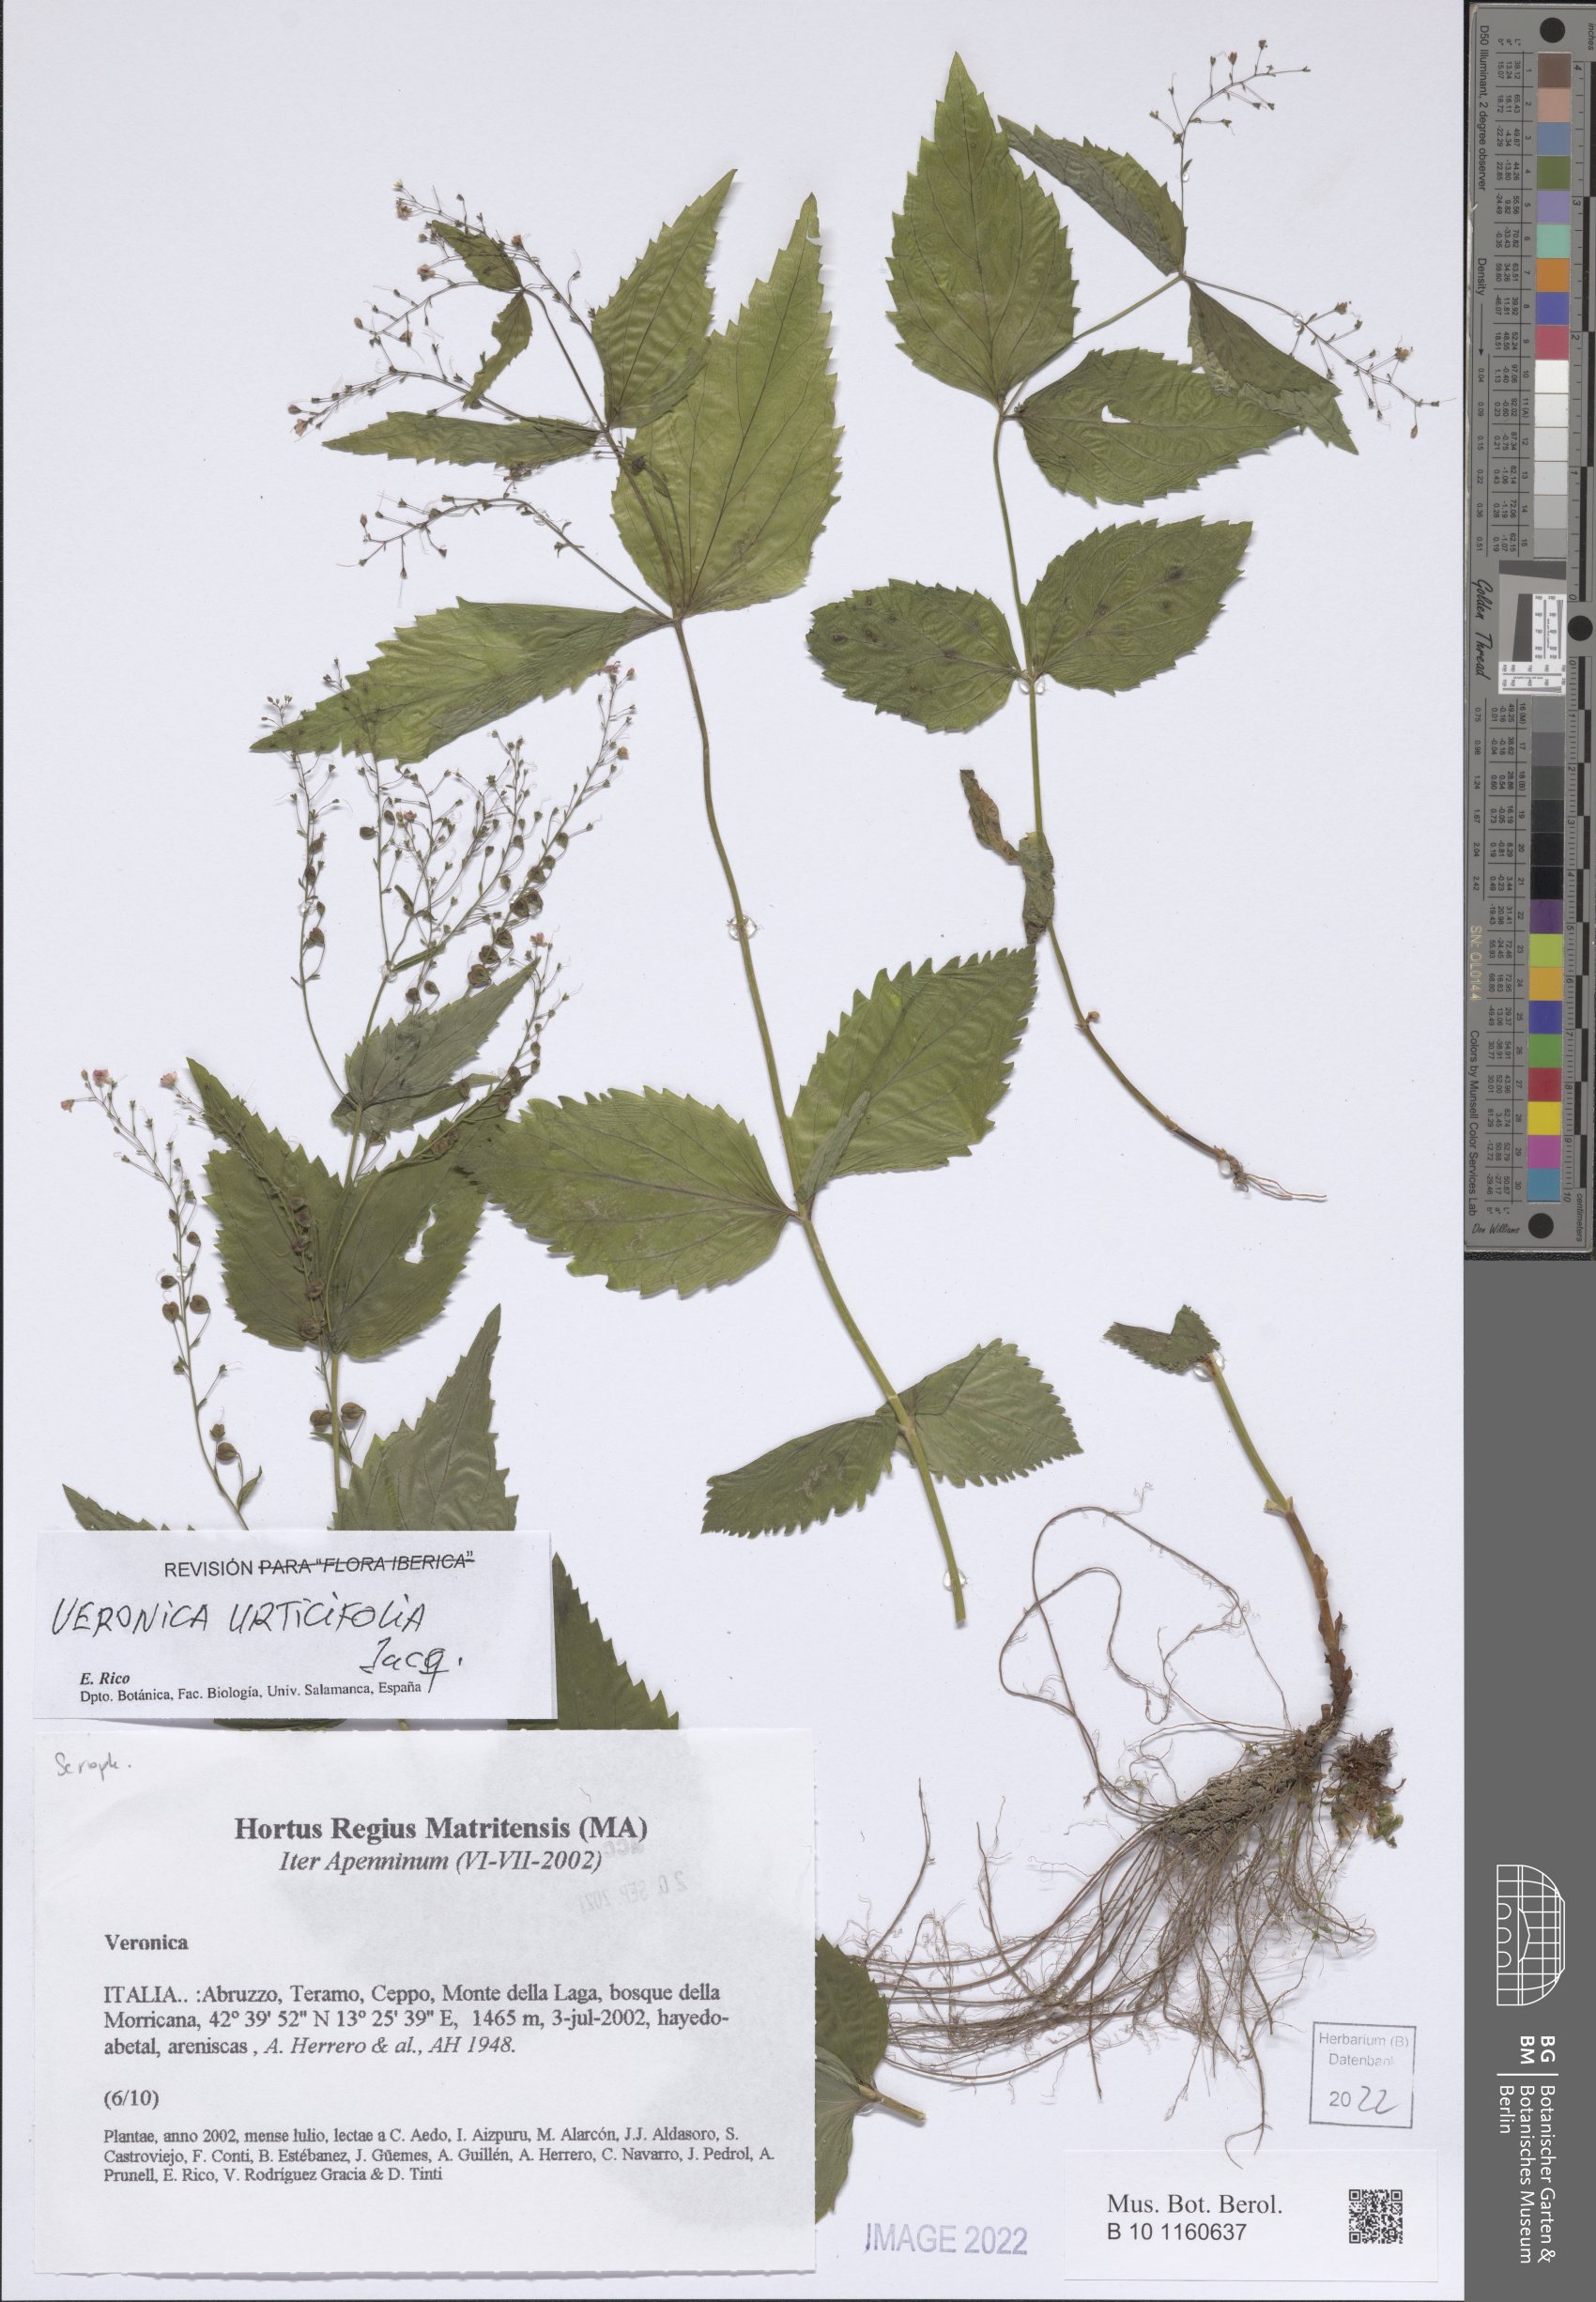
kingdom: Plantae
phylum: Tracheophyta
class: Magnoliopsida
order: Lamiales
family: Plantaginaceae
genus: Veronica
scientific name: Veronica urticifolia
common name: Nettle-leaf speedwell
